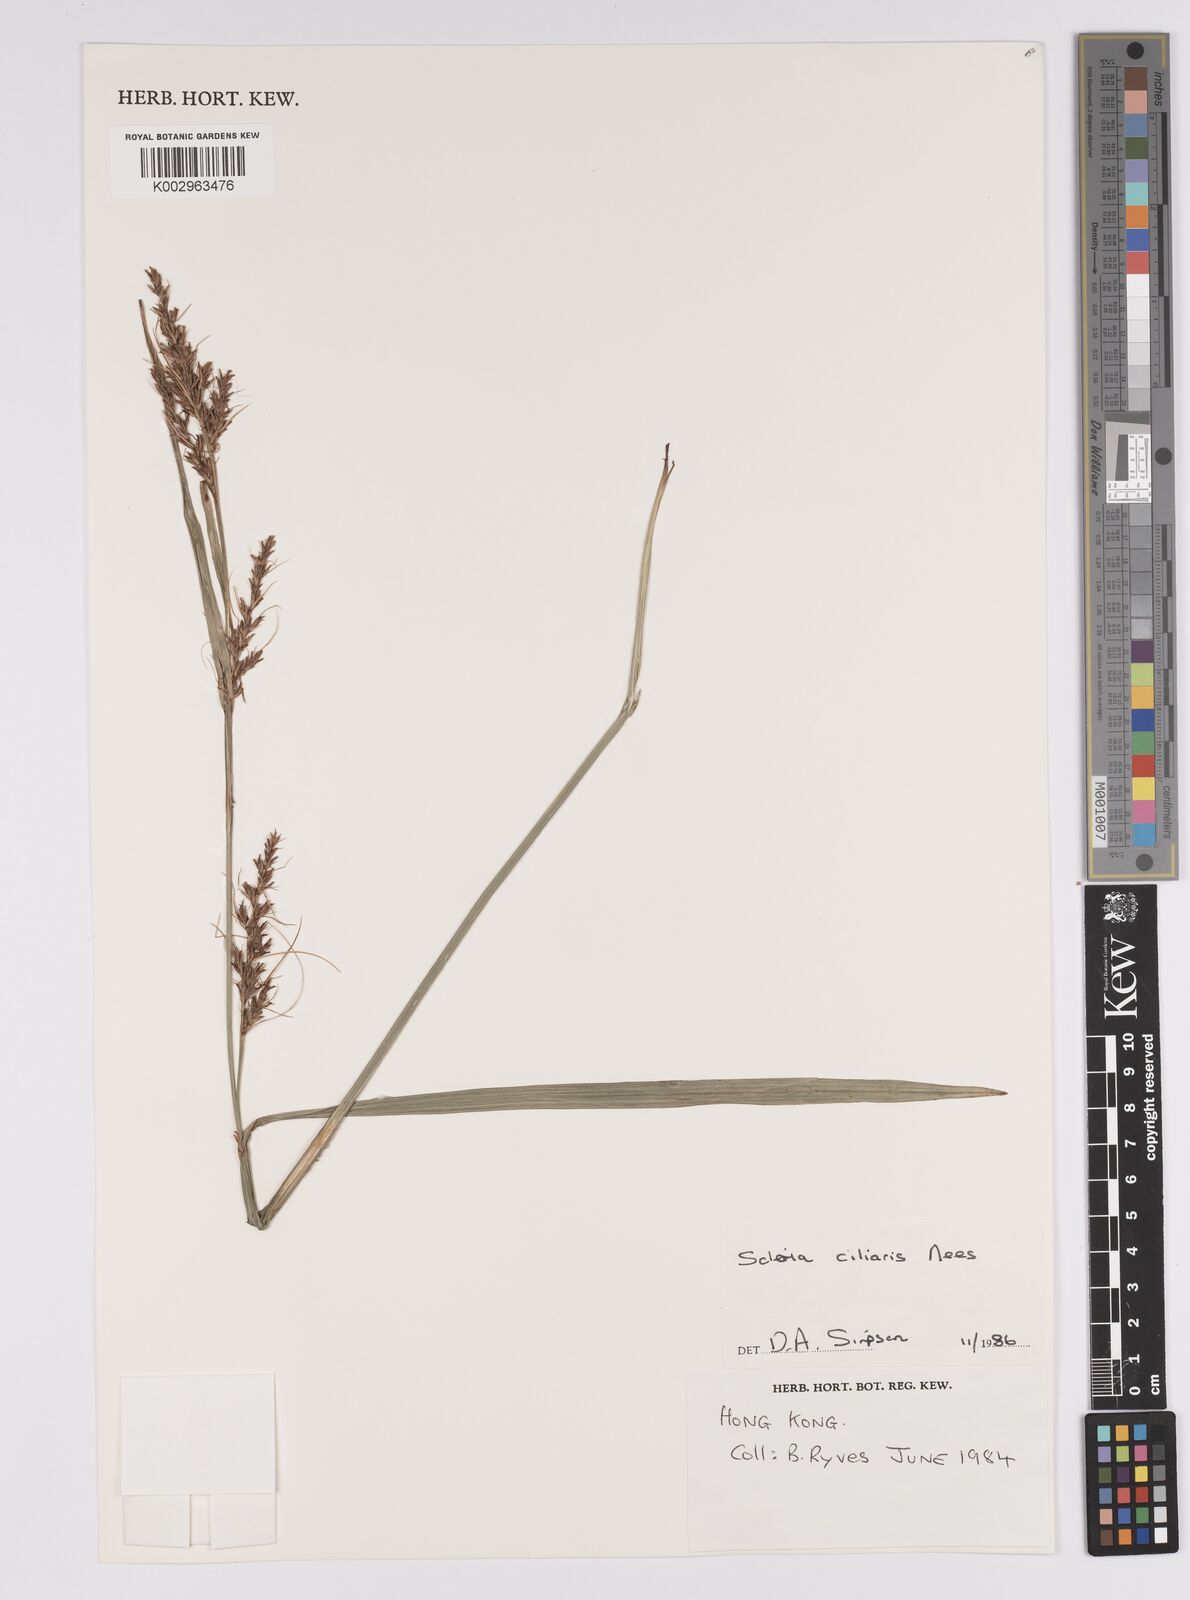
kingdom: Plantae
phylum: Tracheophyta
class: Liliopsida
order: Poales
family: Cyperaceae
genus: Scleria
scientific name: Scleria ciliaris
